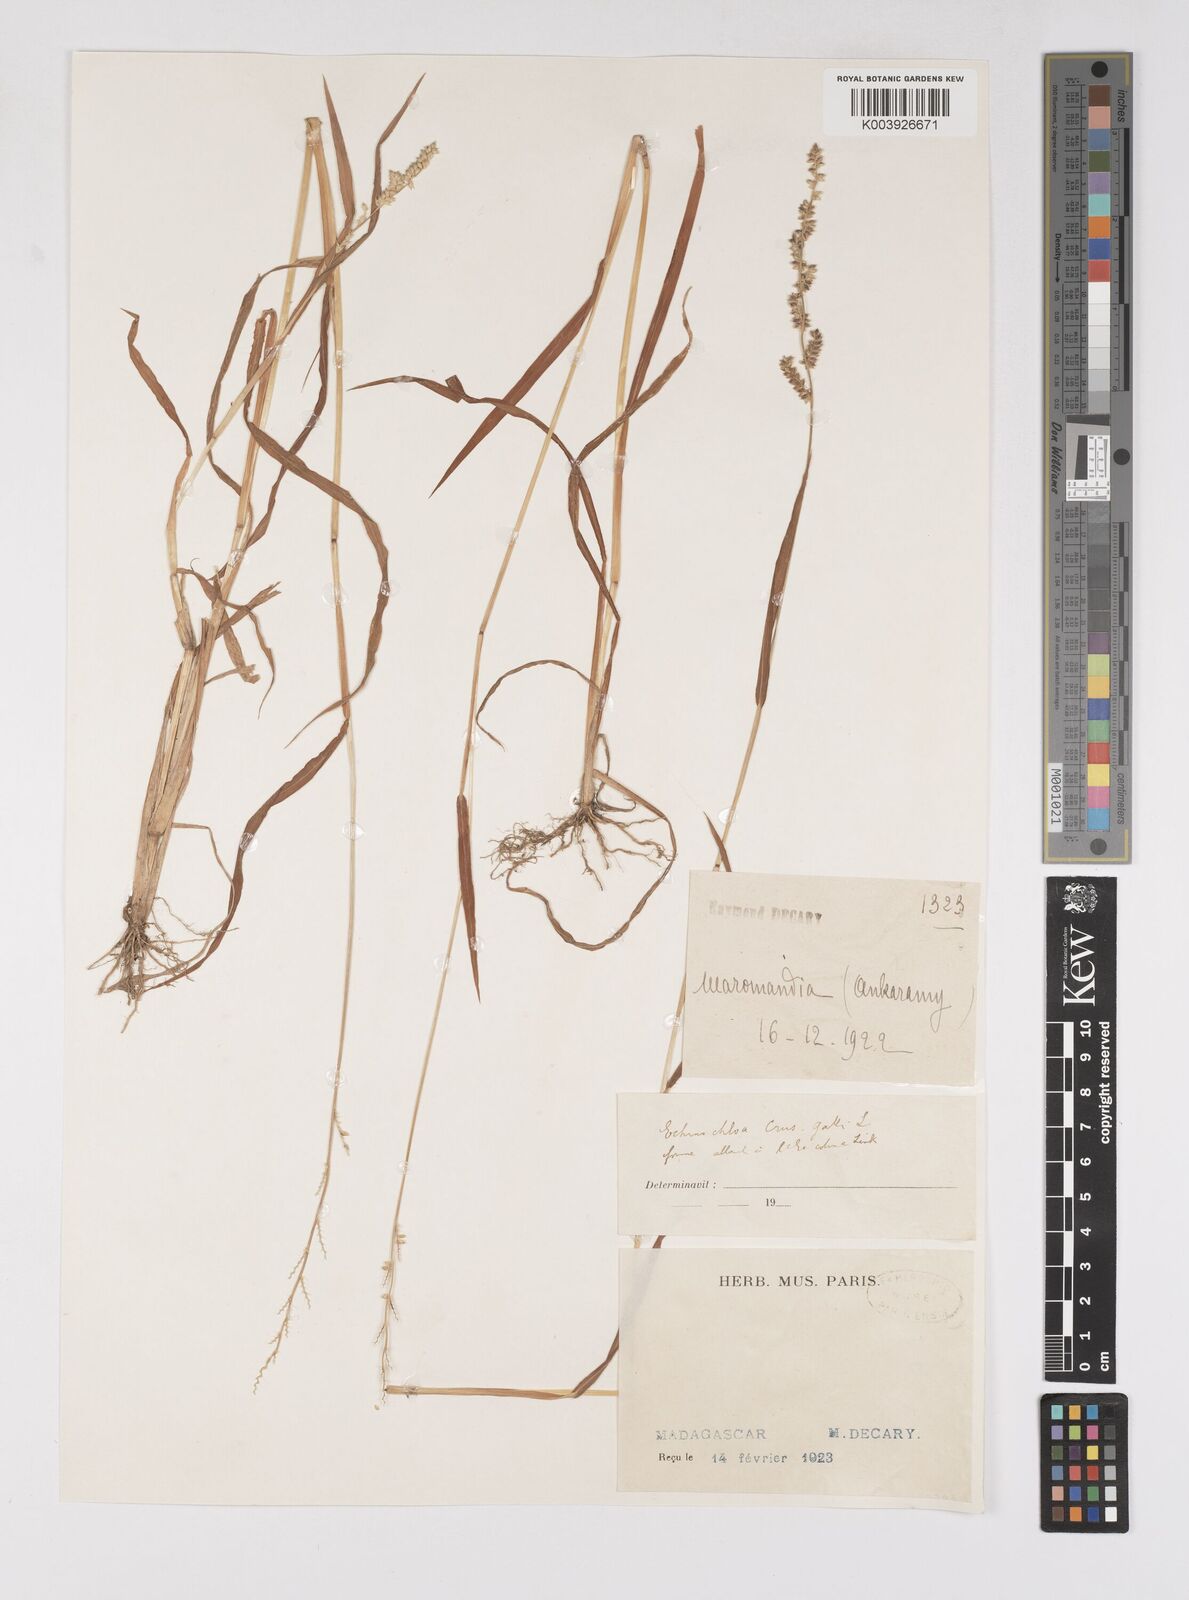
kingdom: Plantae
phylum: Tracheophyta
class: Liliopsida
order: Poales
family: Poaceae
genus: Echinochloa
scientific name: Echinochloa colonum
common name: Jungle rice
